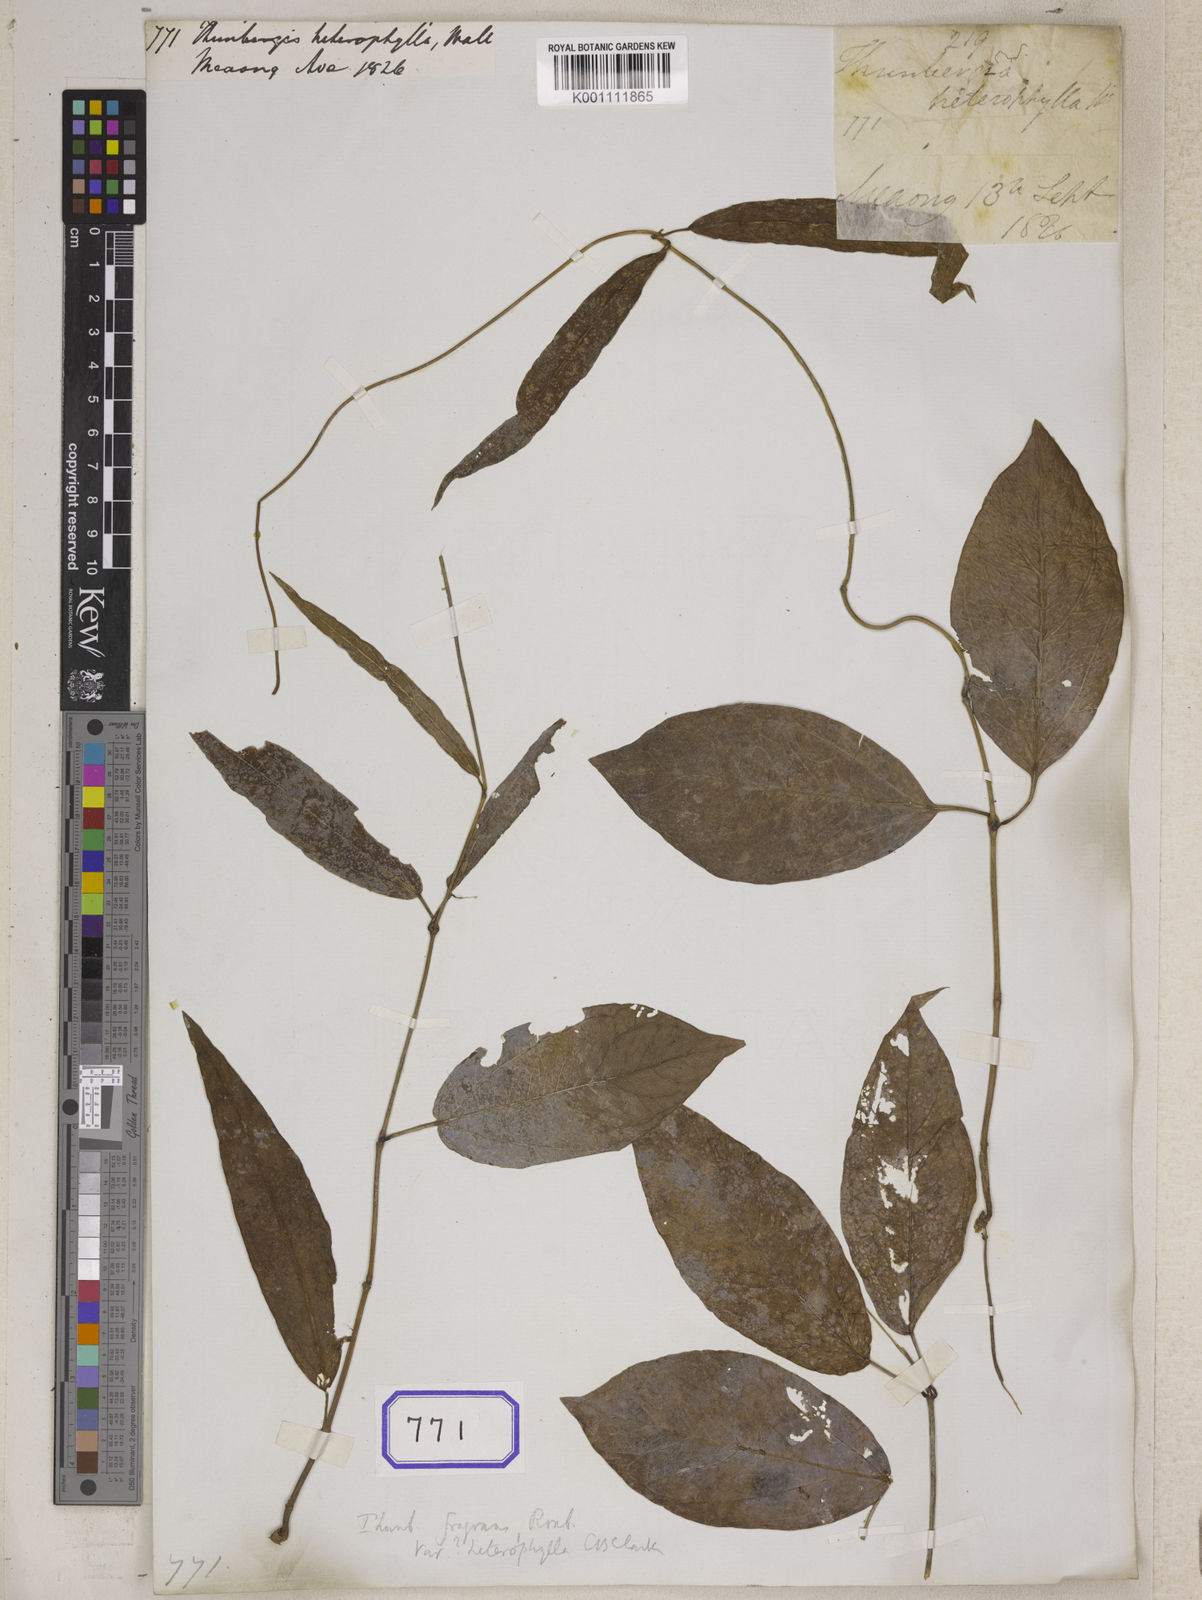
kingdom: Plantae
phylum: Tracheophyta
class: Magnoliopsida
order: Lamiales
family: Acanthaceae
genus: Thunbergia
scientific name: Thunbergia fragrans
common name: Whitelady
